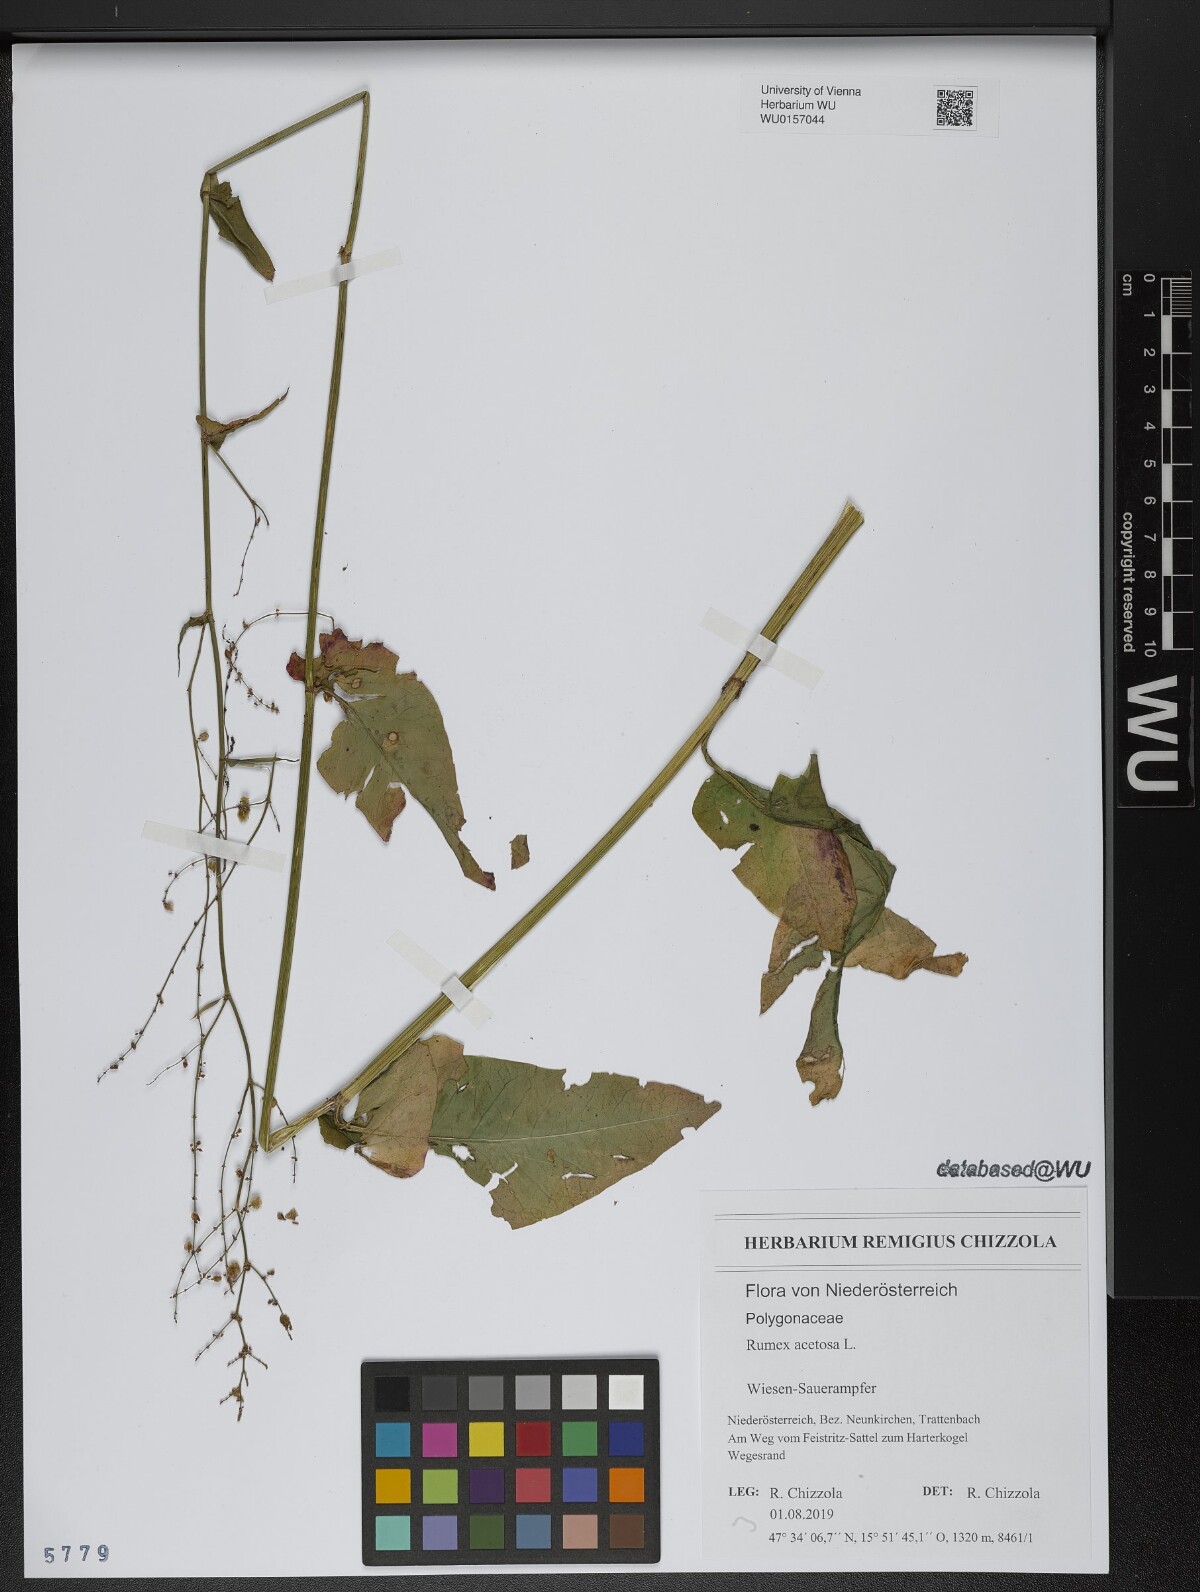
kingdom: Plantae
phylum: Tracheophyta
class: Magnoliopsida
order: Caryophyllales
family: Polygonaceae
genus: Rumex
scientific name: Rumex acetosa
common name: Garden sorrel
